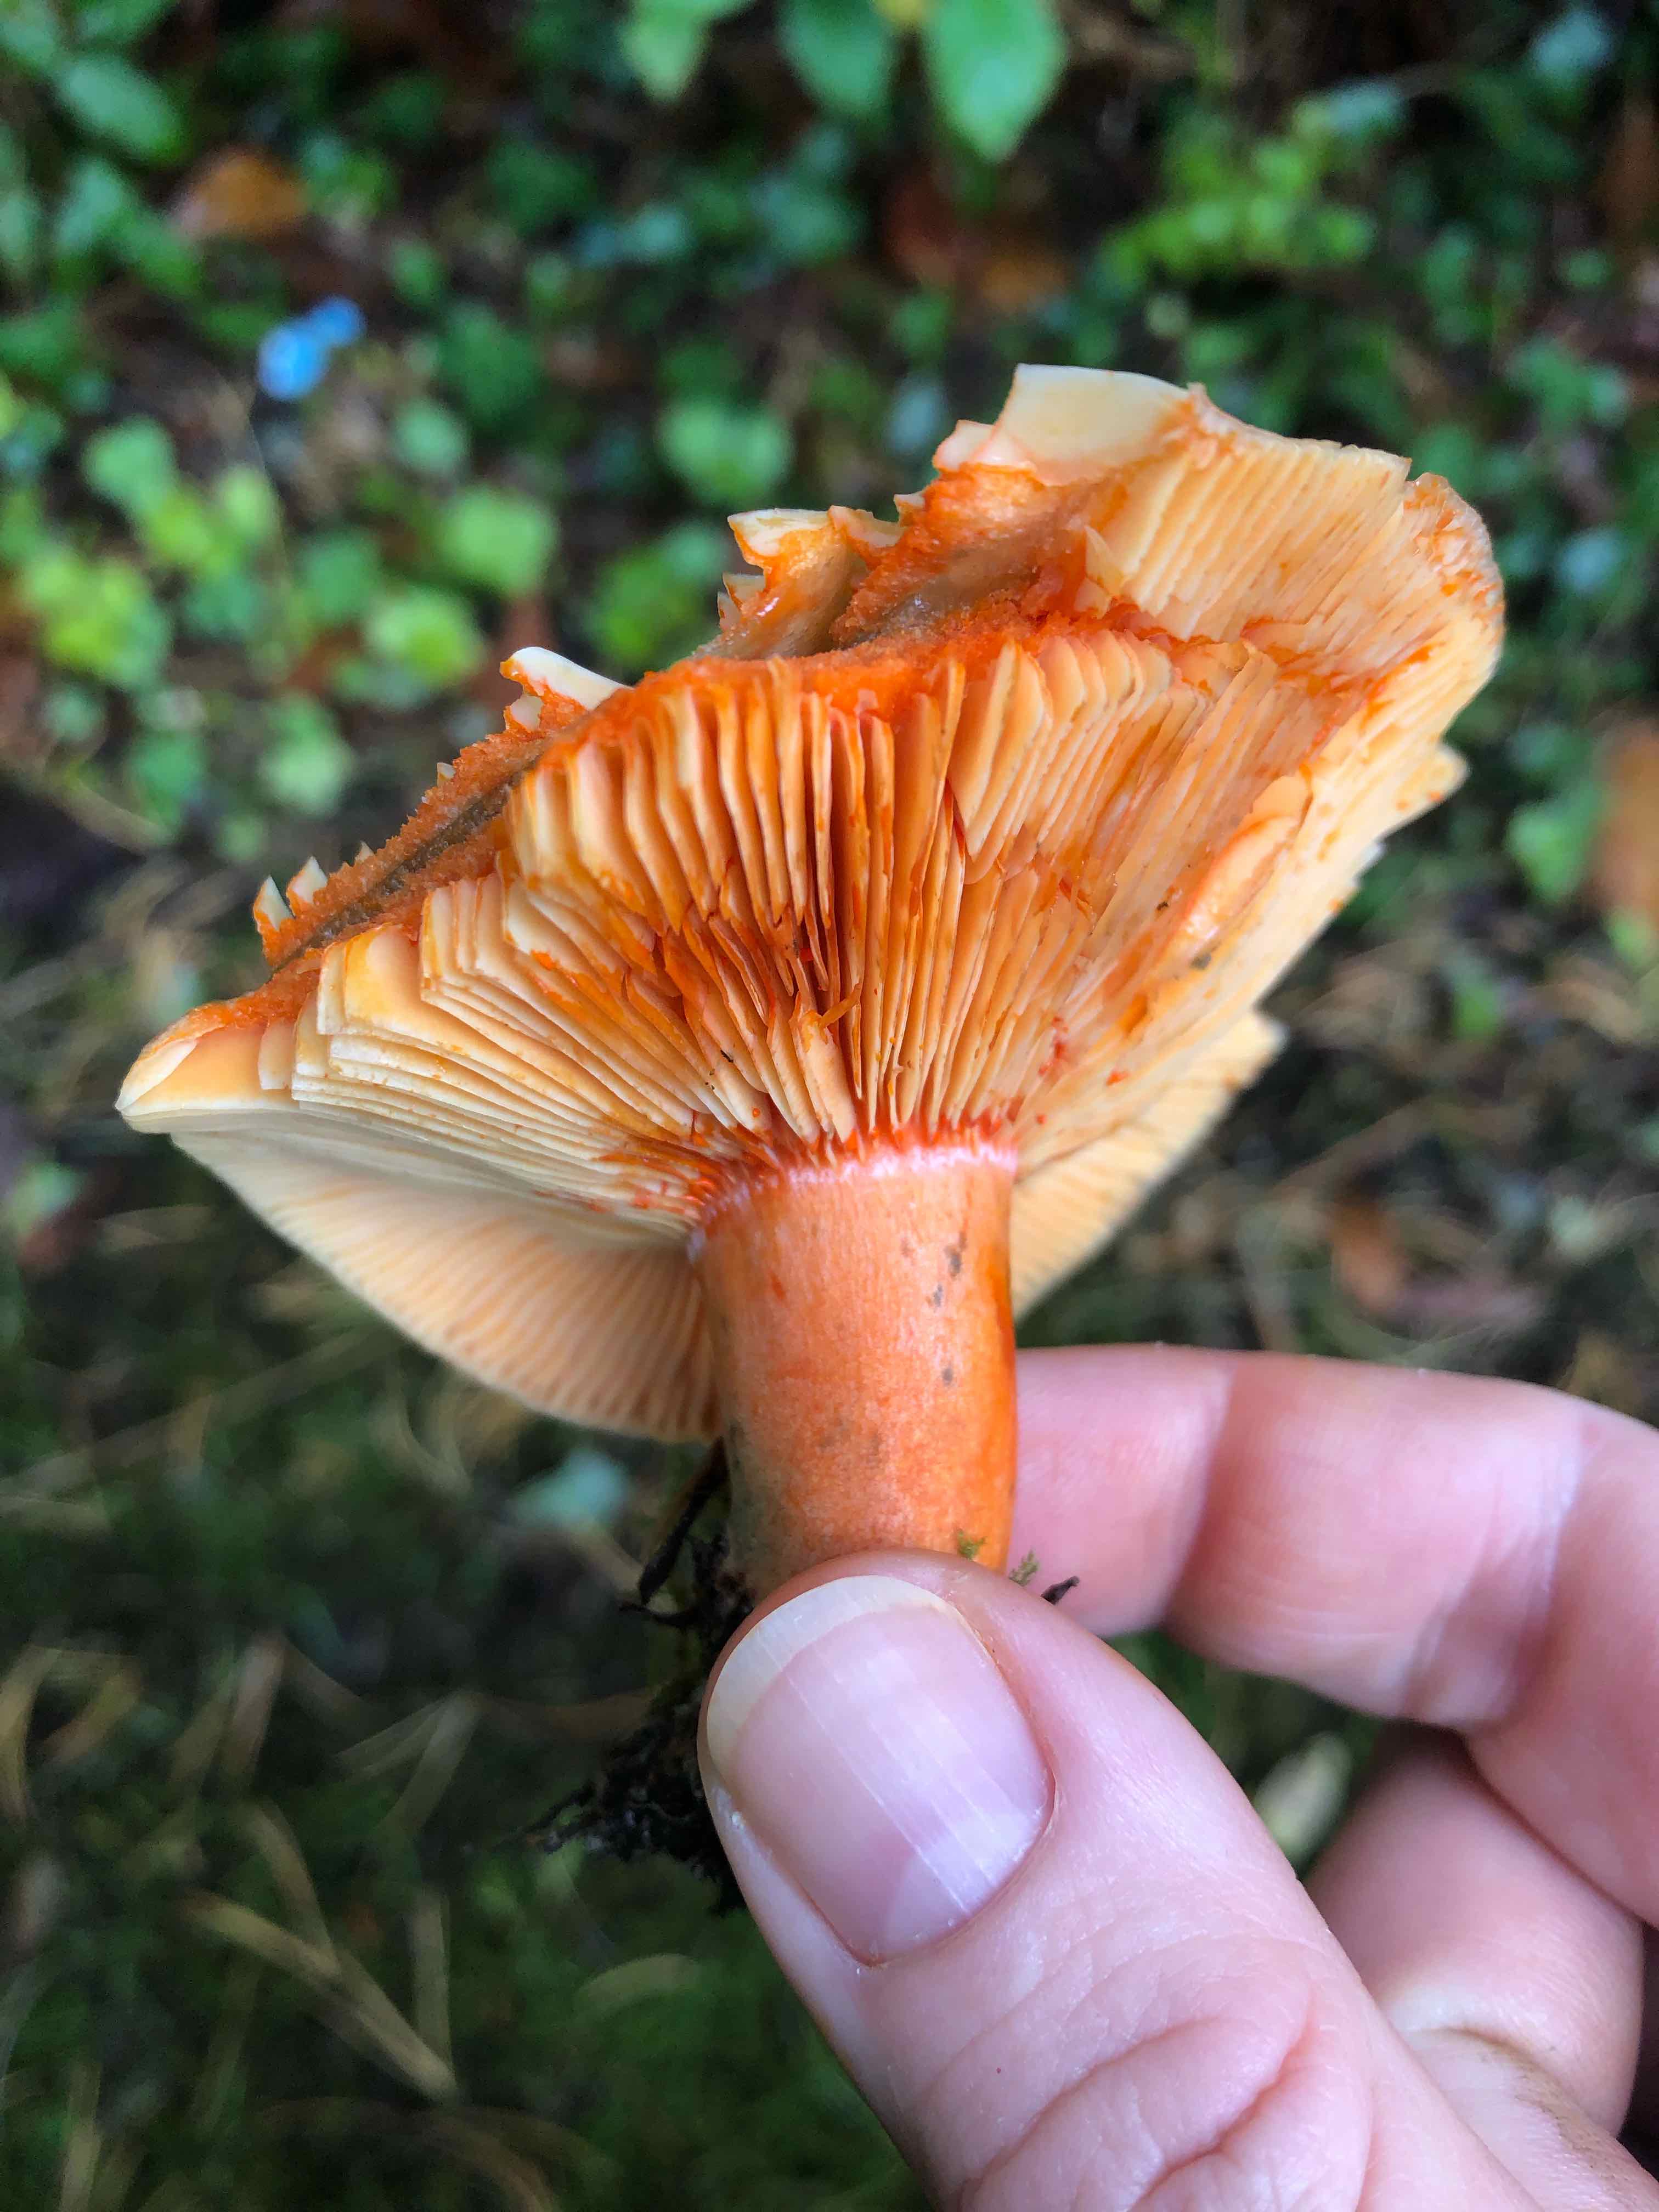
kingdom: Fungi
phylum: Basidiomycota
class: Agaricomycetes
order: Russulales
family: Russulaceae
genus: Lactarius
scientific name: Lactarius deterrimus
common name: gran-mælkehat
